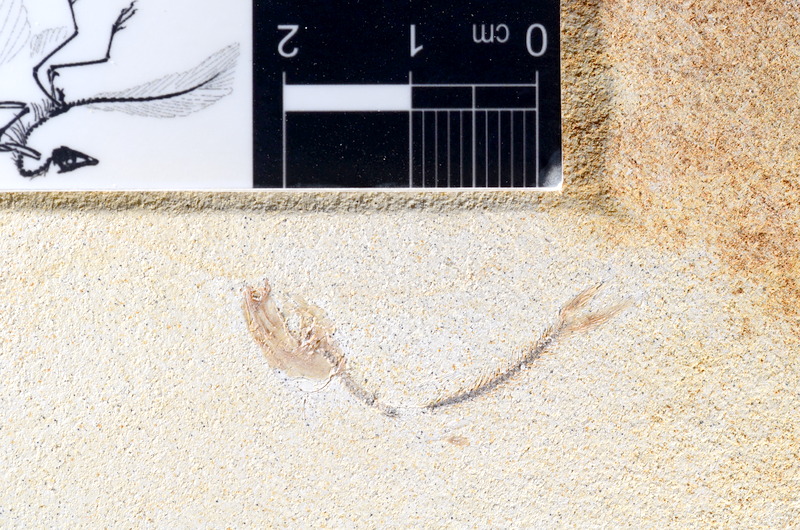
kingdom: Animalia
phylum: Chordata
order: Salmoniformes
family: Orthogonikleithridae
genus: Orthogonikleithrus
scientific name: Orthogonikleithrus hoelli
